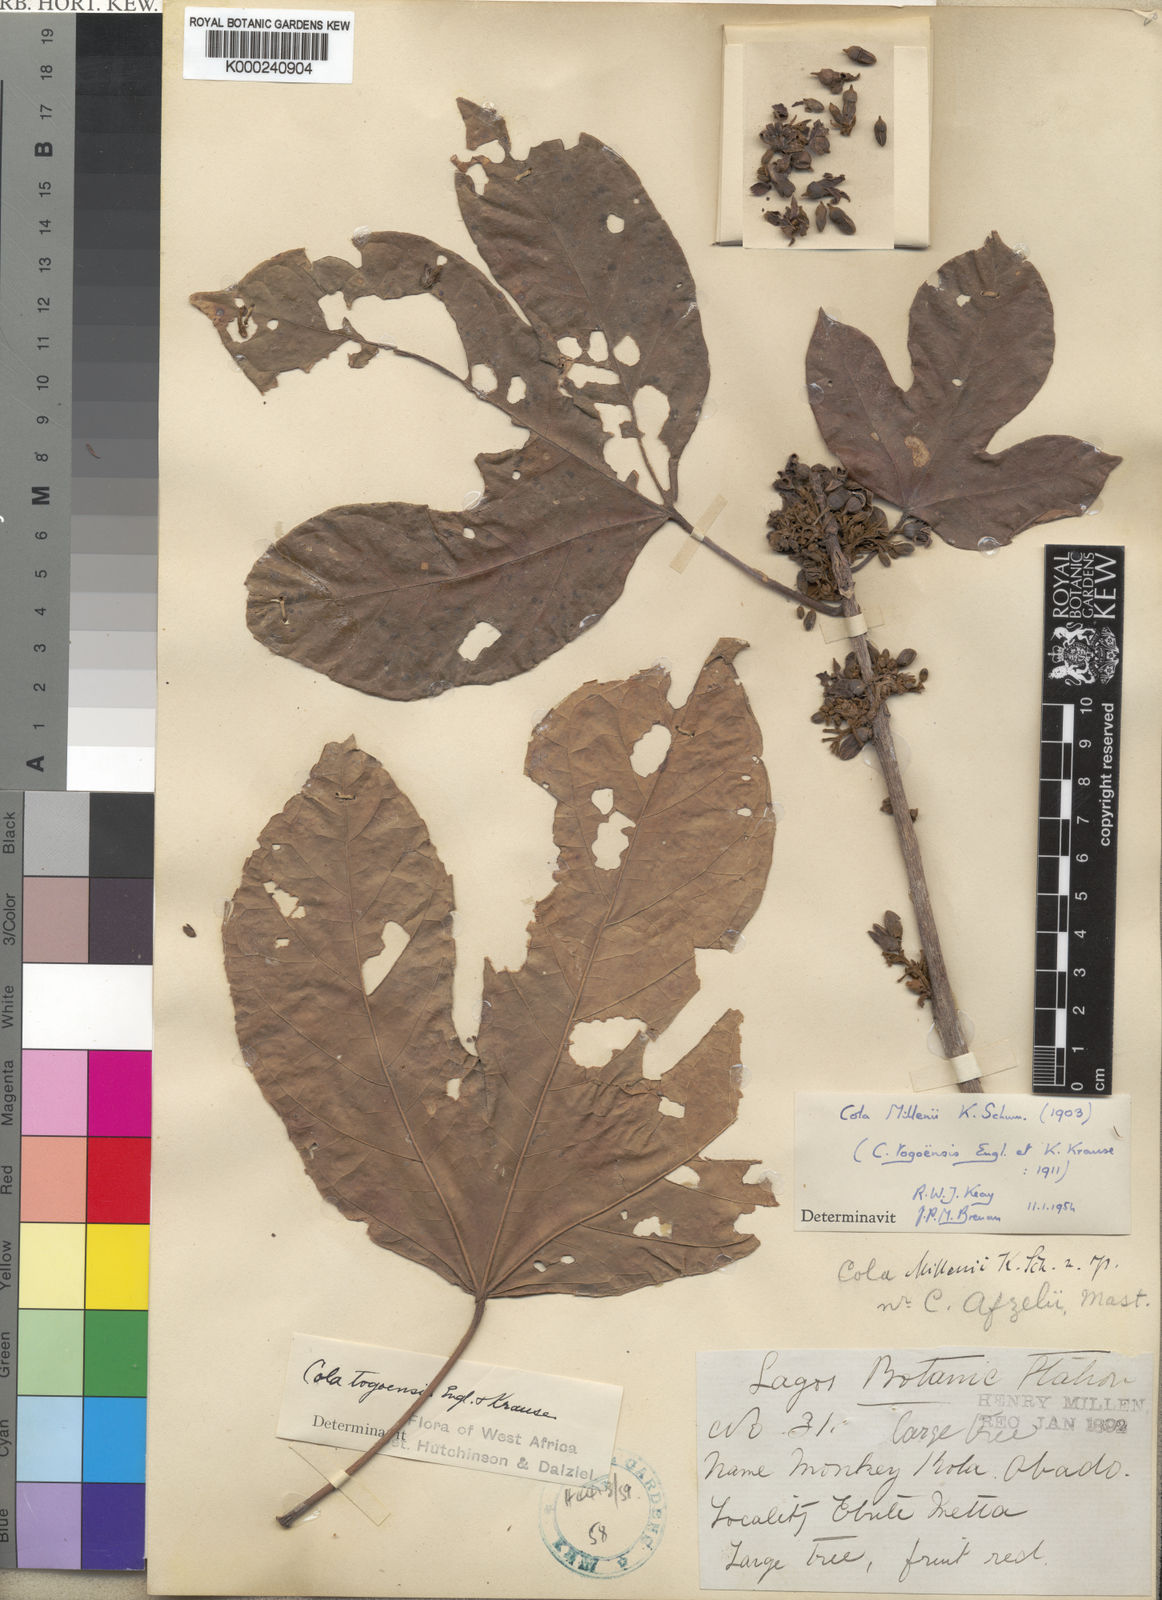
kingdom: Plantae
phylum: Tracheophyta
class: Magnoliopsida
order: Malvales
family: Malvaceae
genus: Cola
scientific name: Cola millenii
